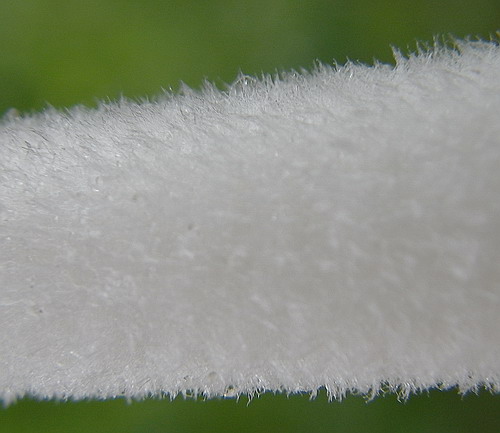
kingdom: Fungi
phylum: Basidiomycota
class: Agaricomycetes
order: Agaricales
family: Psathyrellaceae
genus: Coprinopsis
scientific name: Coprinopsis lagopus
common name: dunstokket blækhat
